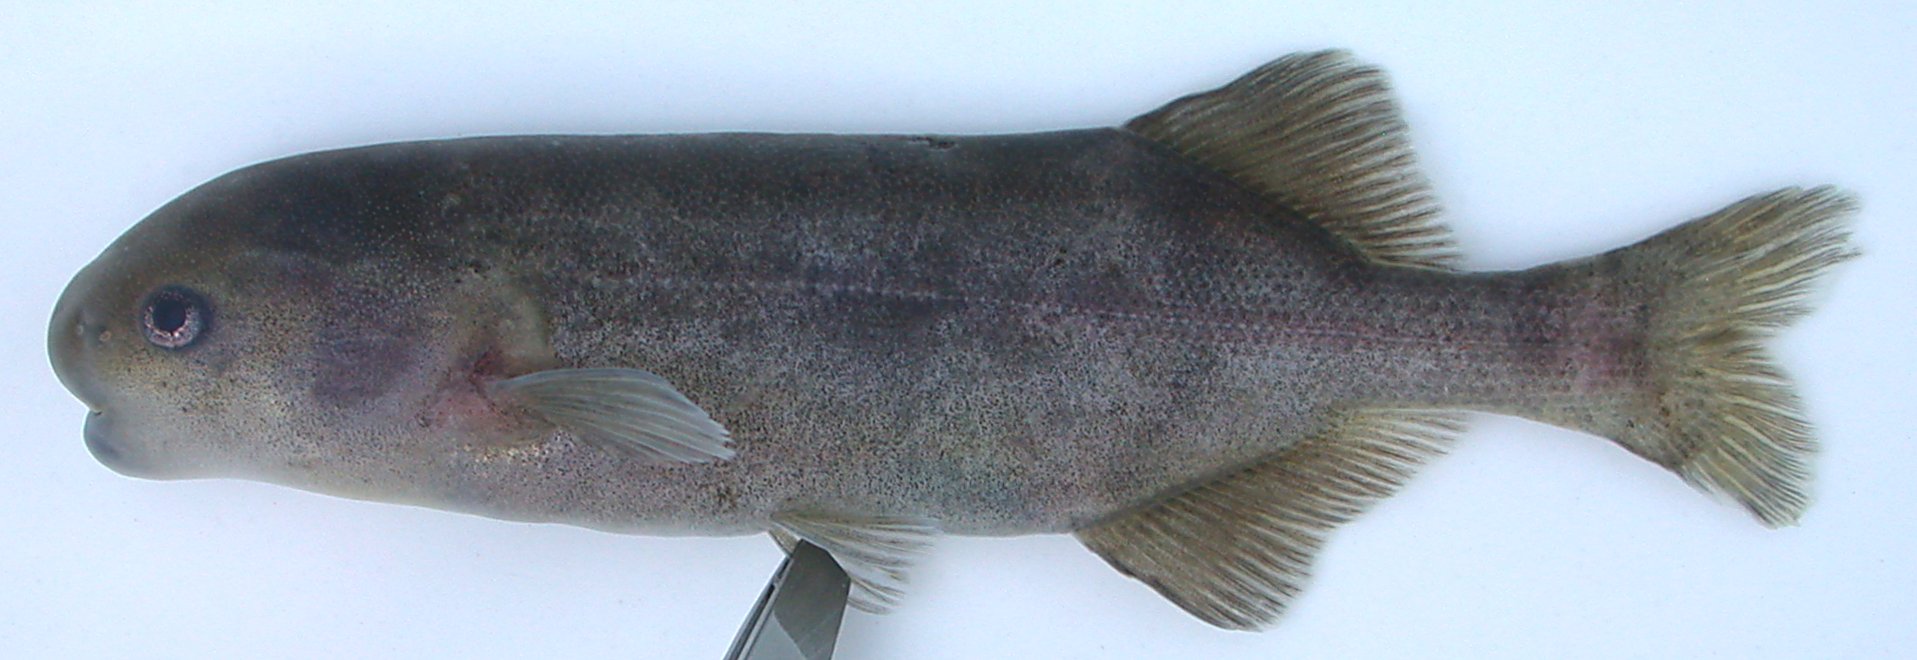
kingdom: Animalia
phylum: Chordata
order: Osteoglossiformes
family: Mormyridae
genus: Hippopotamyrus
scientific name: Hippopotamyrus
